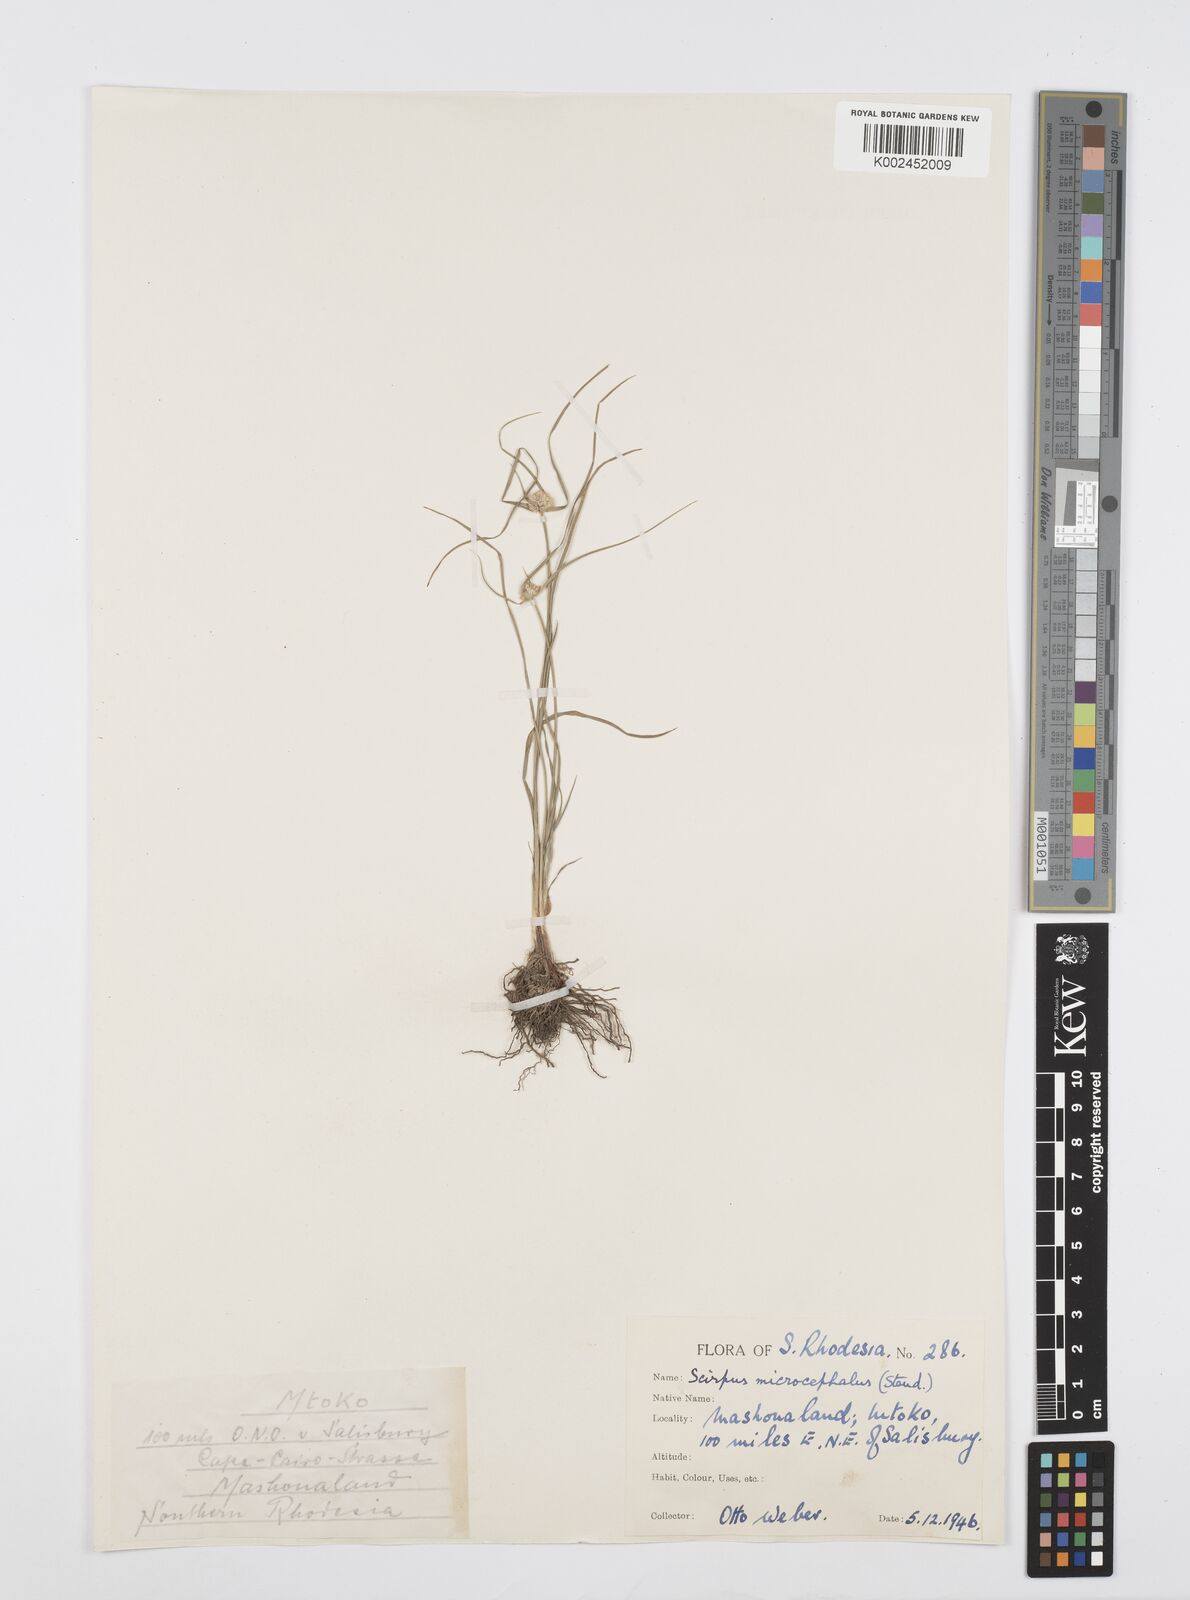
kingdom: Plantae
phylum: Tracheophyta
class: Liliopsida
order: Poales
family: Cyperaceae
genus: Cyperus
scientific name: Cyperus conglobatus
